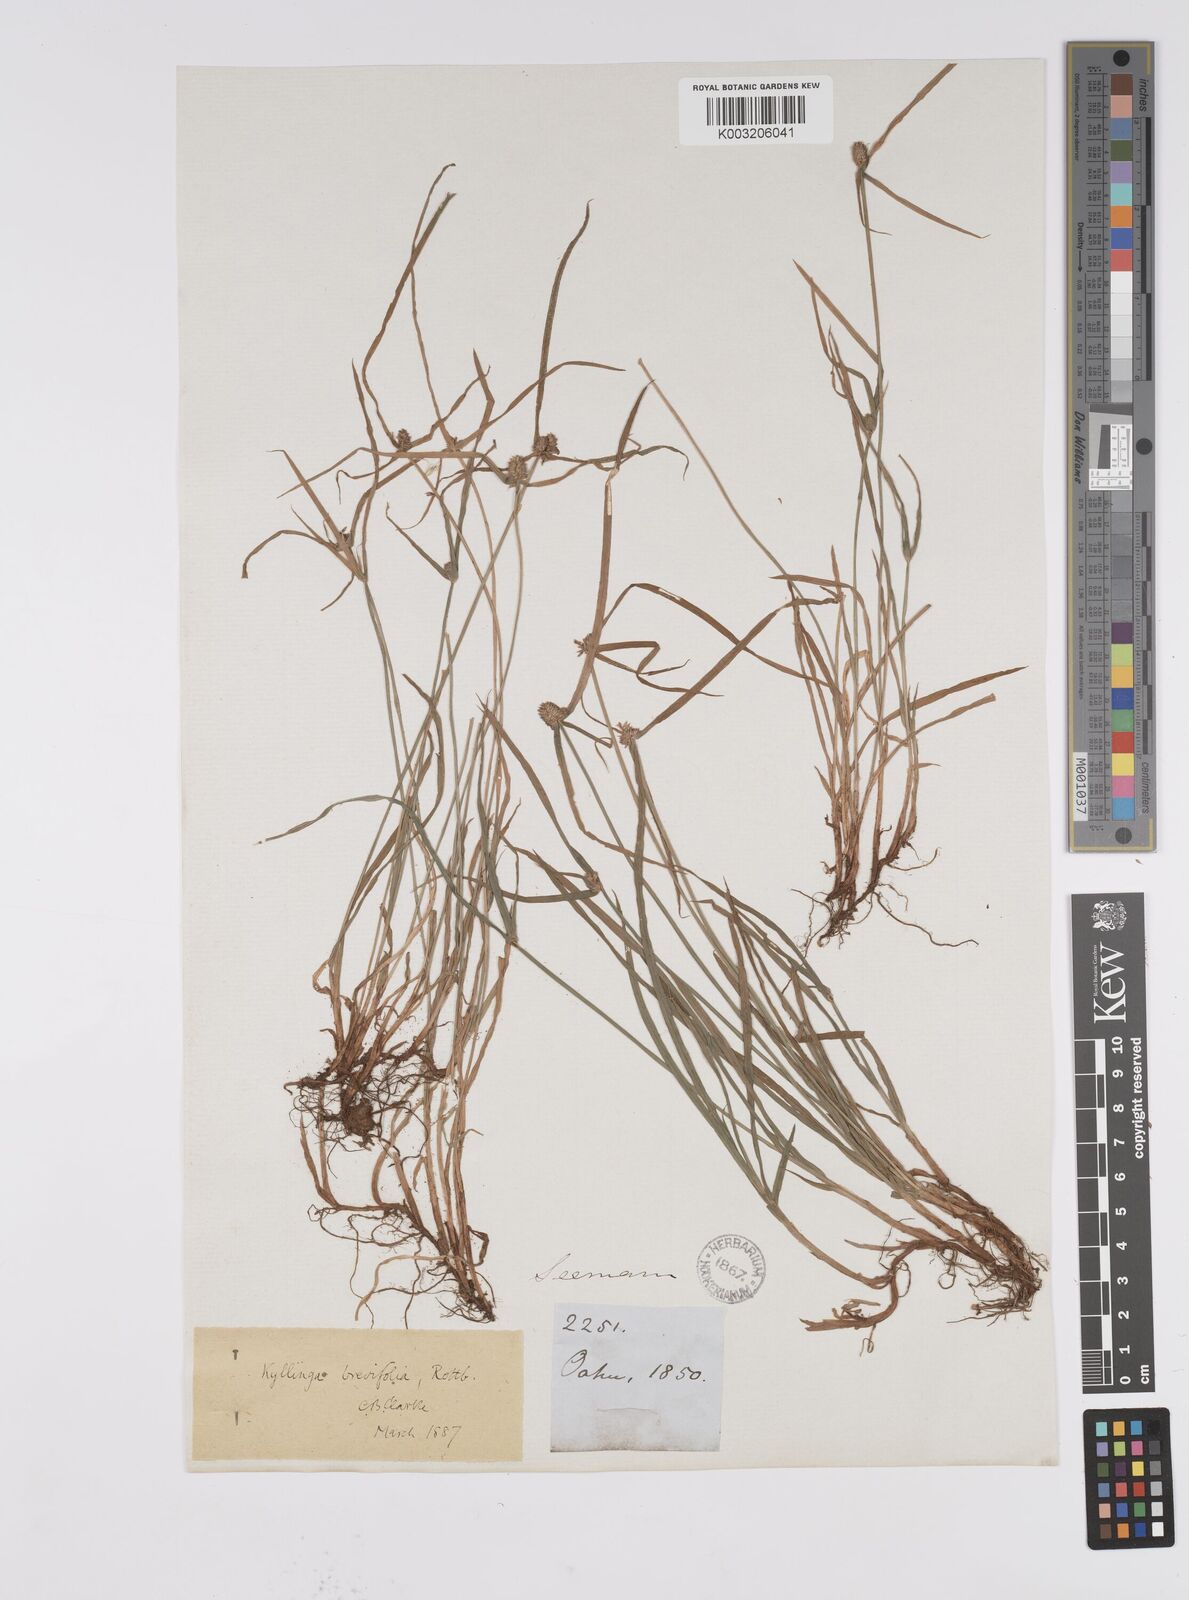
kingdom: Plantae
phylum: Tracheophyta
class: Liliopsida
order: Poales
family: Cyperaceae
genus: Cyperus
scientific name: Cyperus brevifolius
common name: Globe kyllinga
